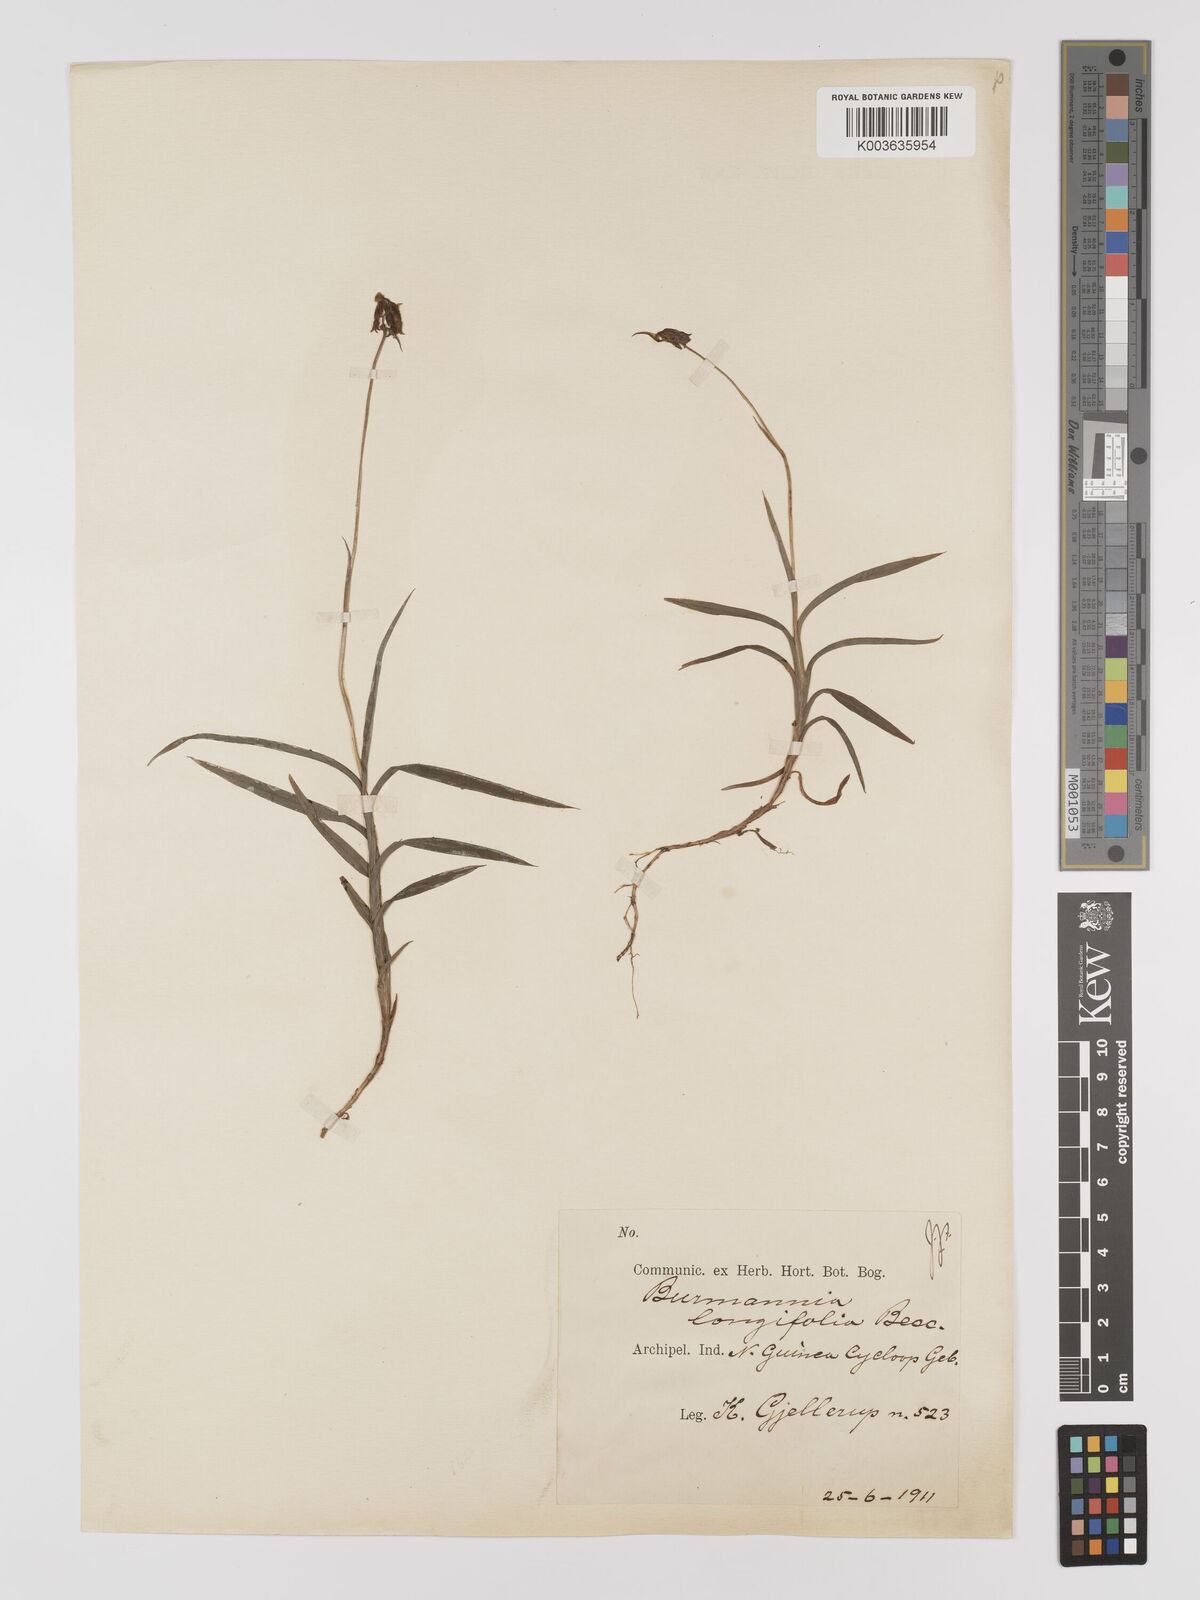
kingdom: Plantae
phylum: Tracheophyta
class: Liliopsida
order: Dioscoreales
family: Burmanniaceae
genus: Burmannia
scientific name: Burmannia longifolia
